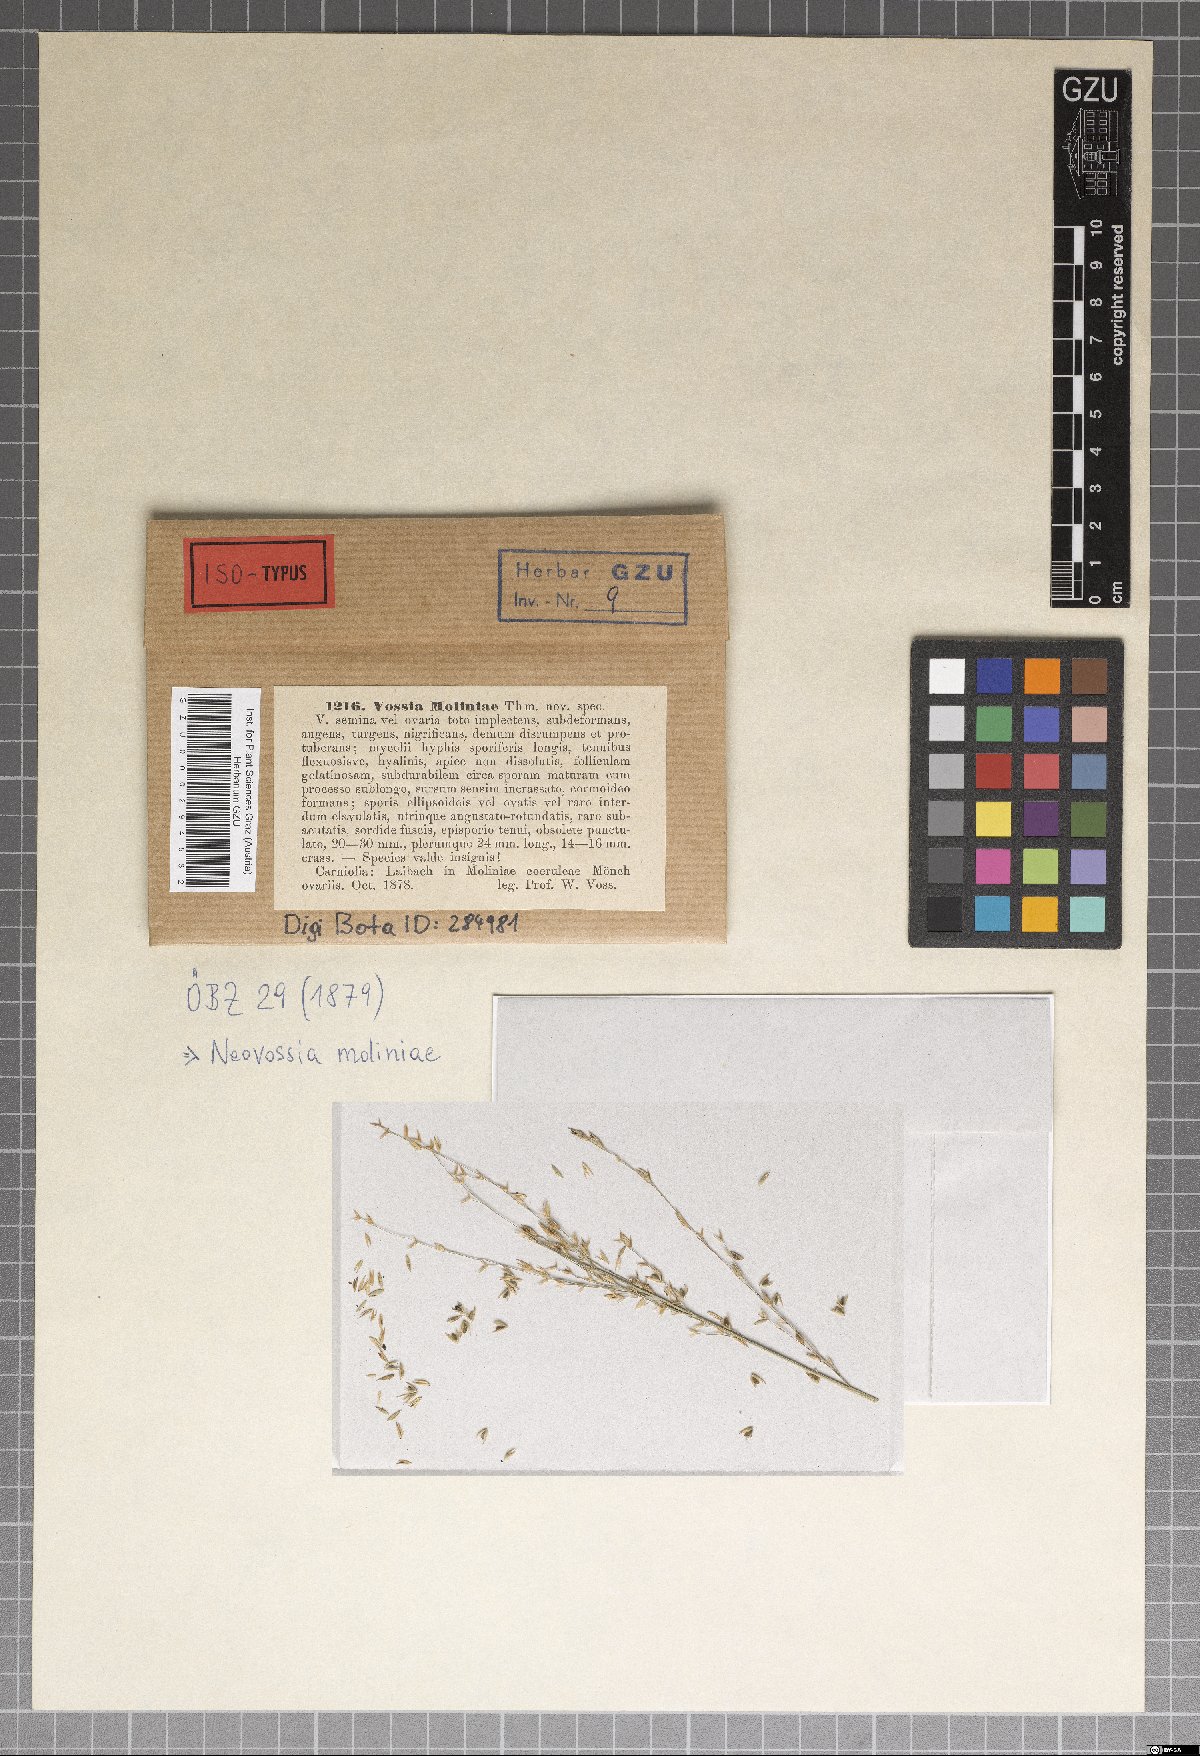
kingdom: Fungi
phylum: Basidiomycota
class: Exobasidiomycetes
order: Tilletiales
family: Tilletiaceae
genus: Neovossia
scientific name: Neovossia moliniae
